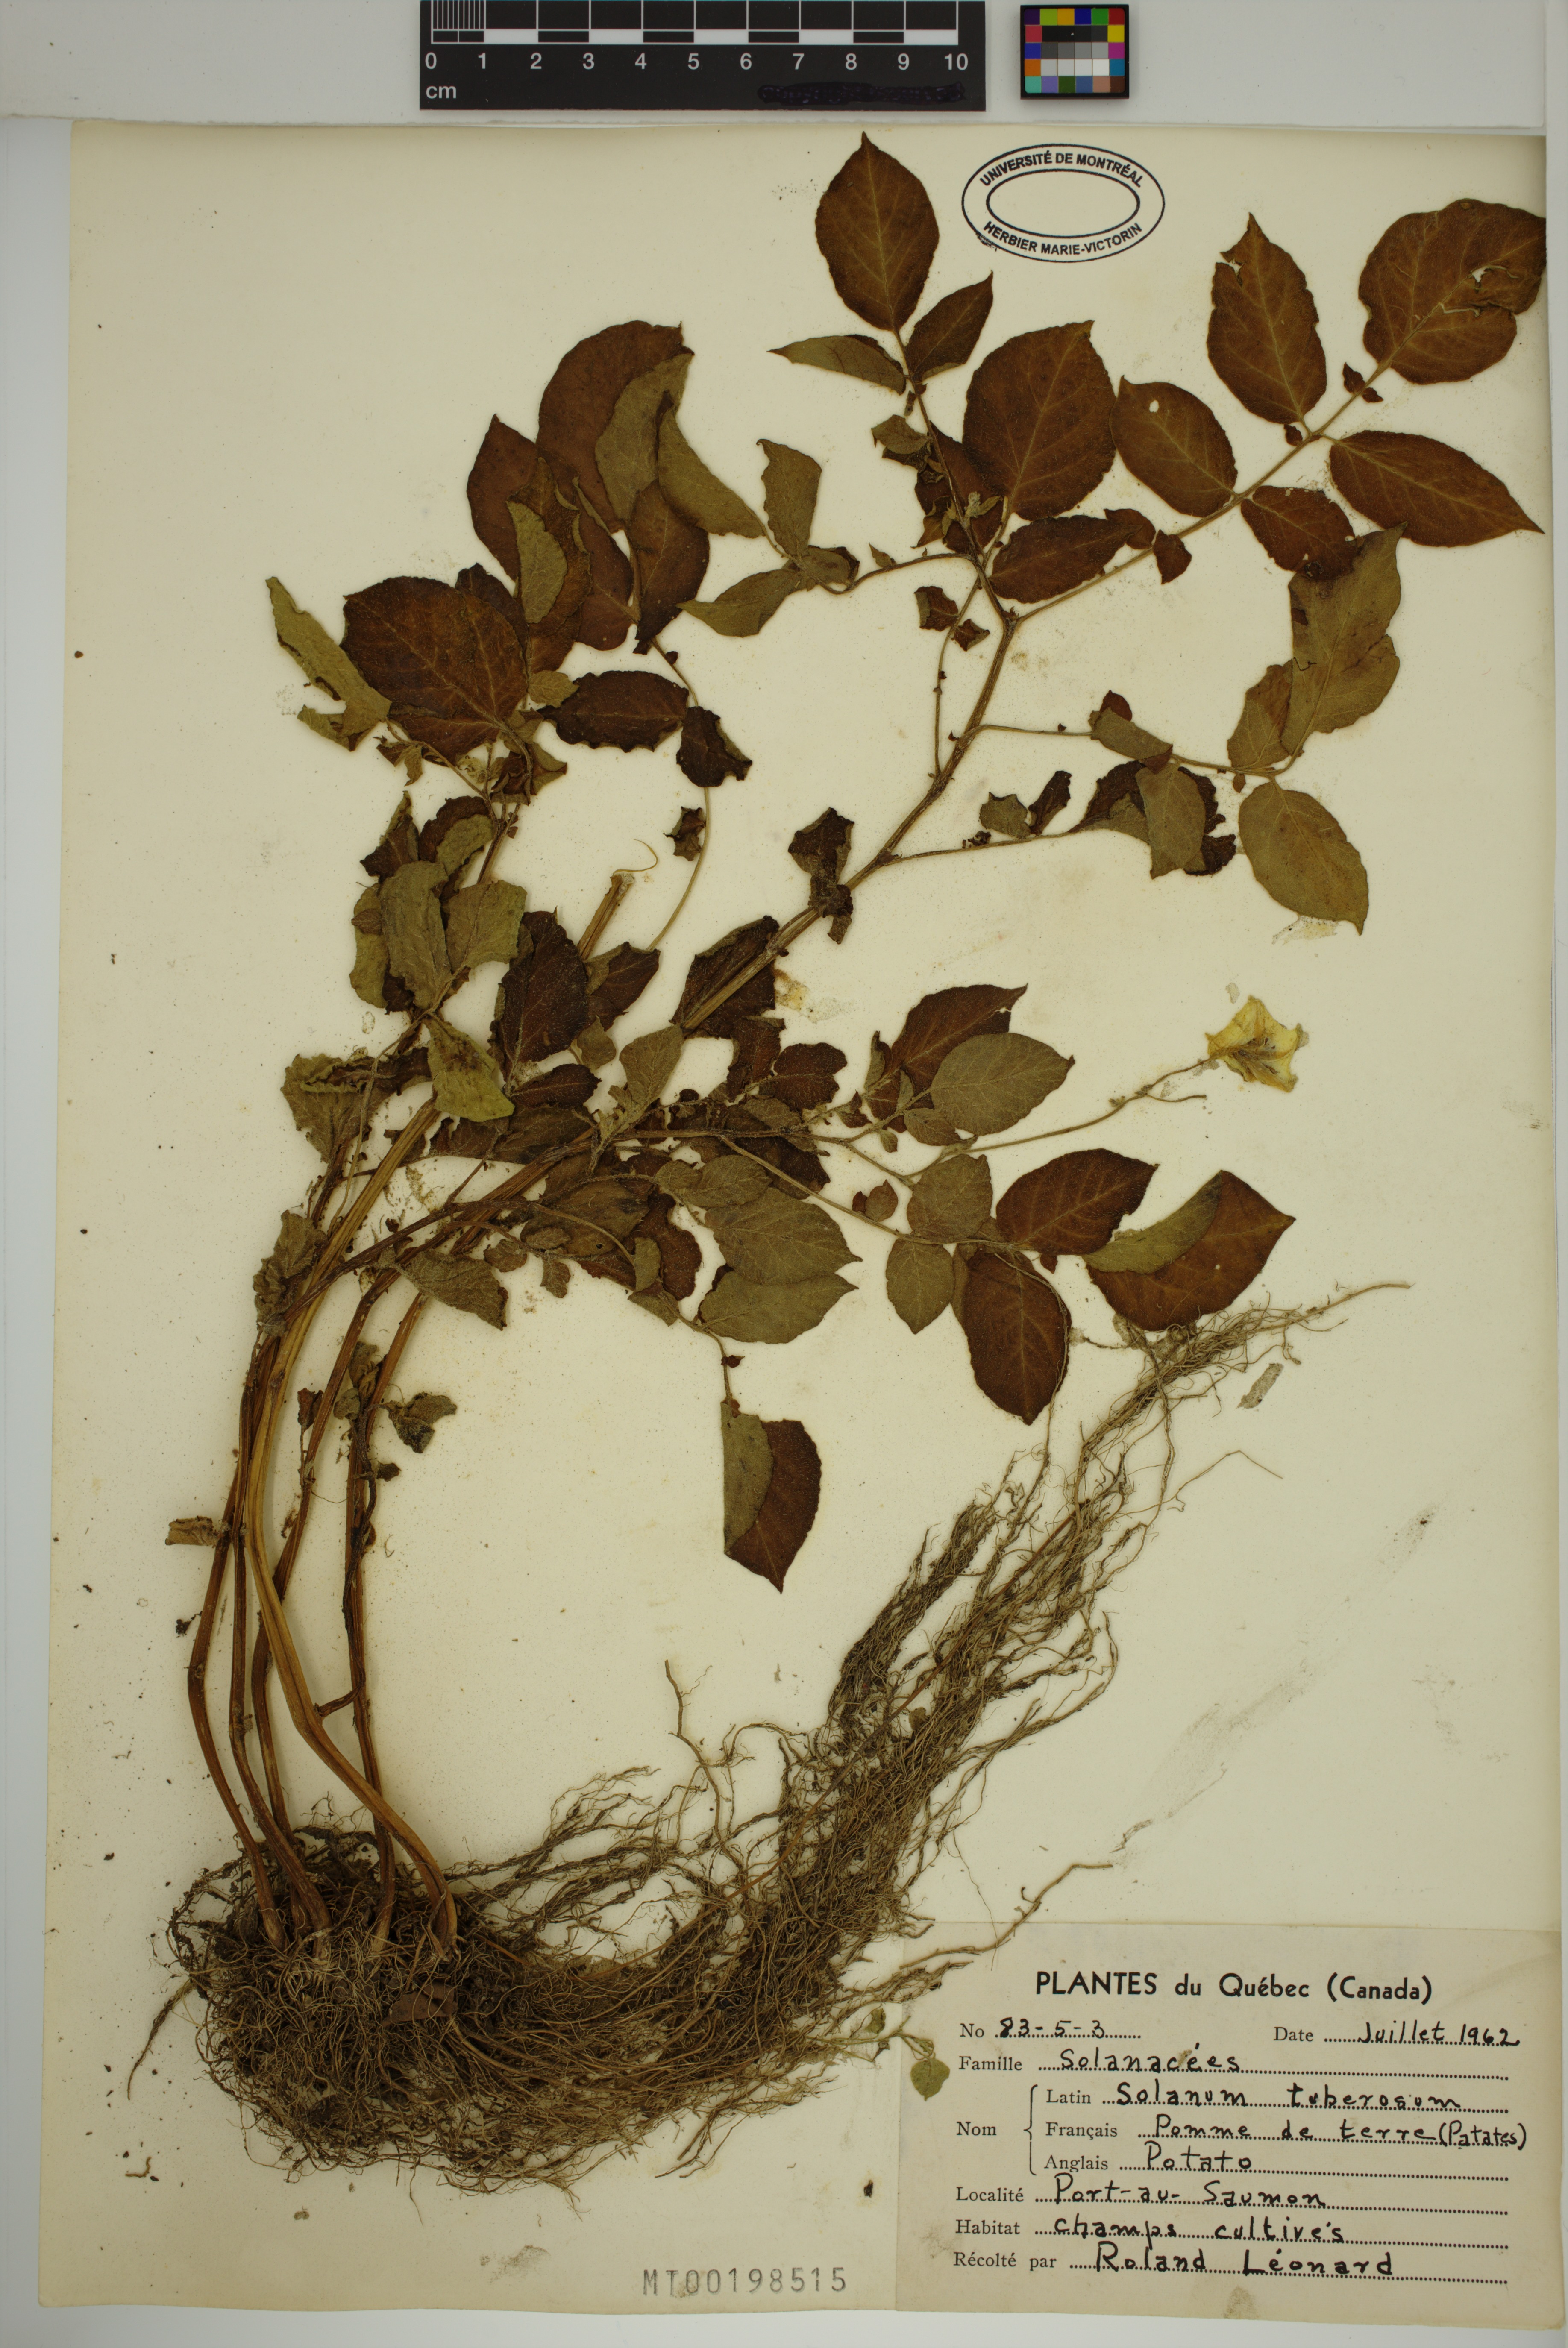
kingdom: Plantae
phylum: Tracheophyta
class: Magnoliopsida
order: Solanales
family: Solanaceae
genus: Solanum
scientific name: Solanum tuberosum
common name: Potato
